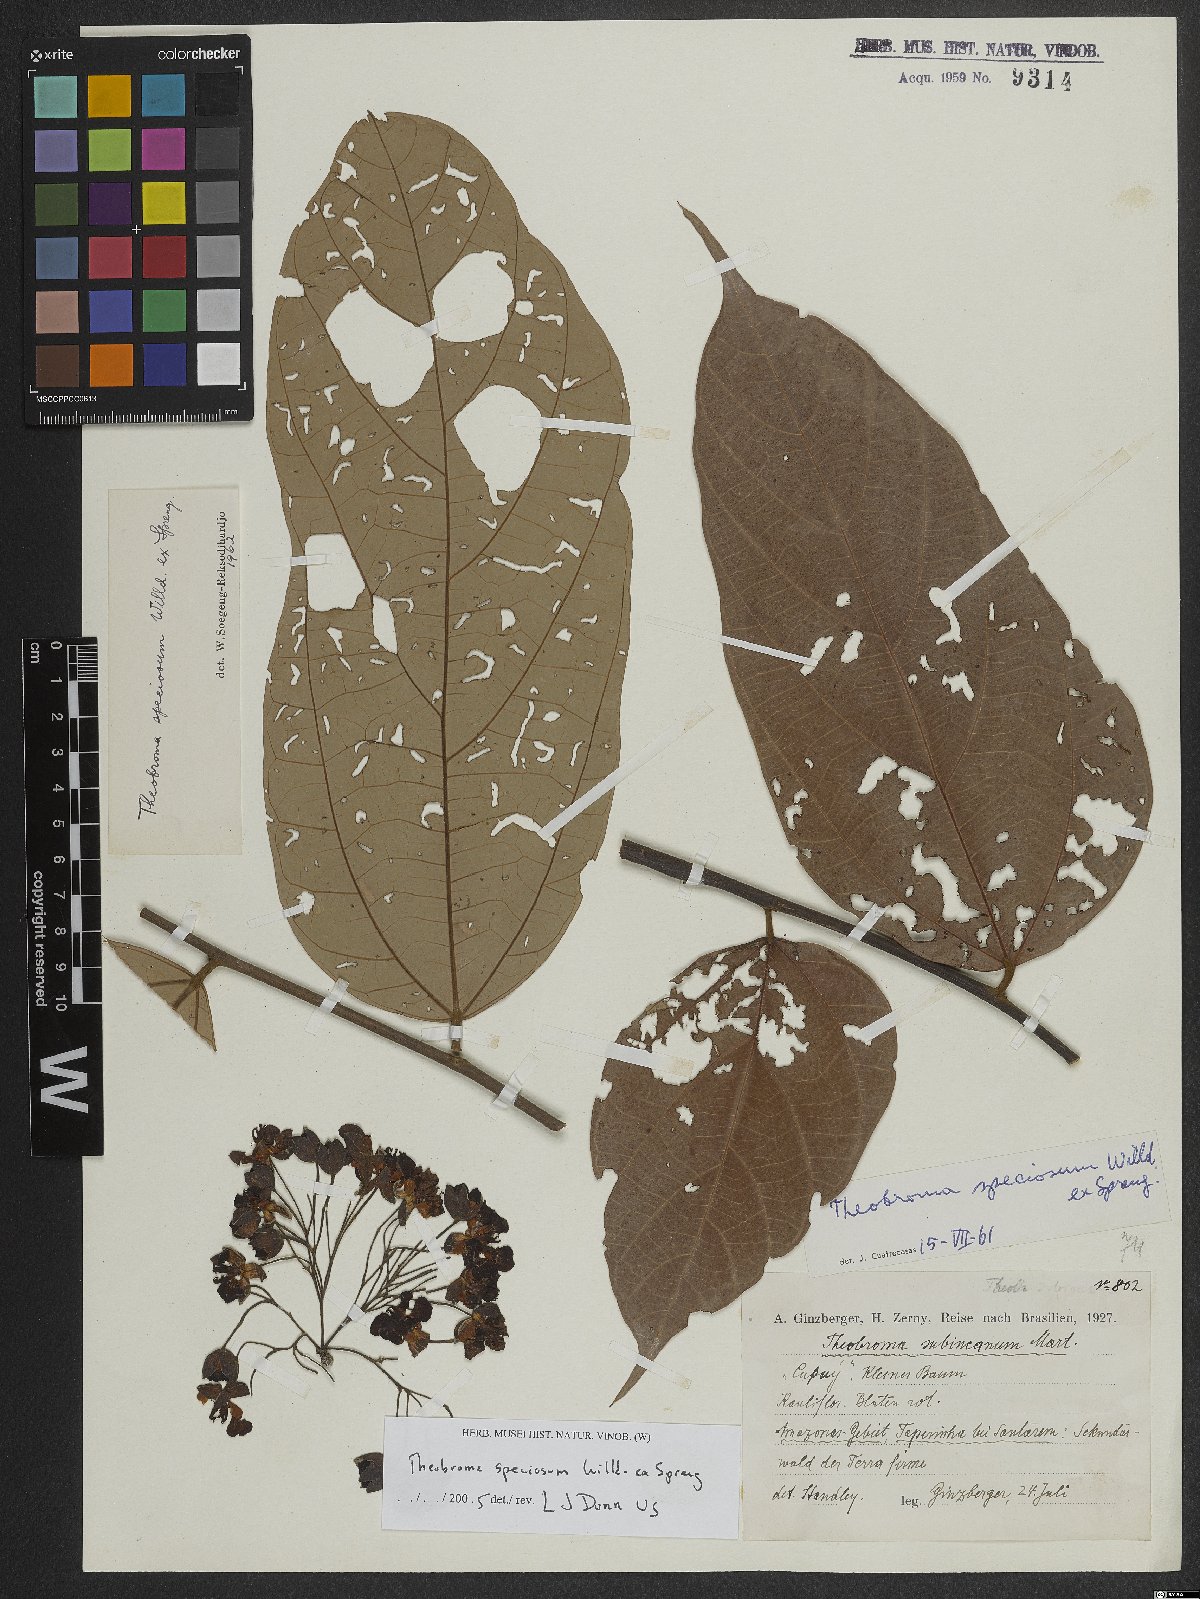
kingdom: Plantae
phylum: Tracheophyta
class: Magnoliopsida
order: Malvales
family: Malvaceae
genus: Theobroma
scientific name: Theobroma grandiflorum
